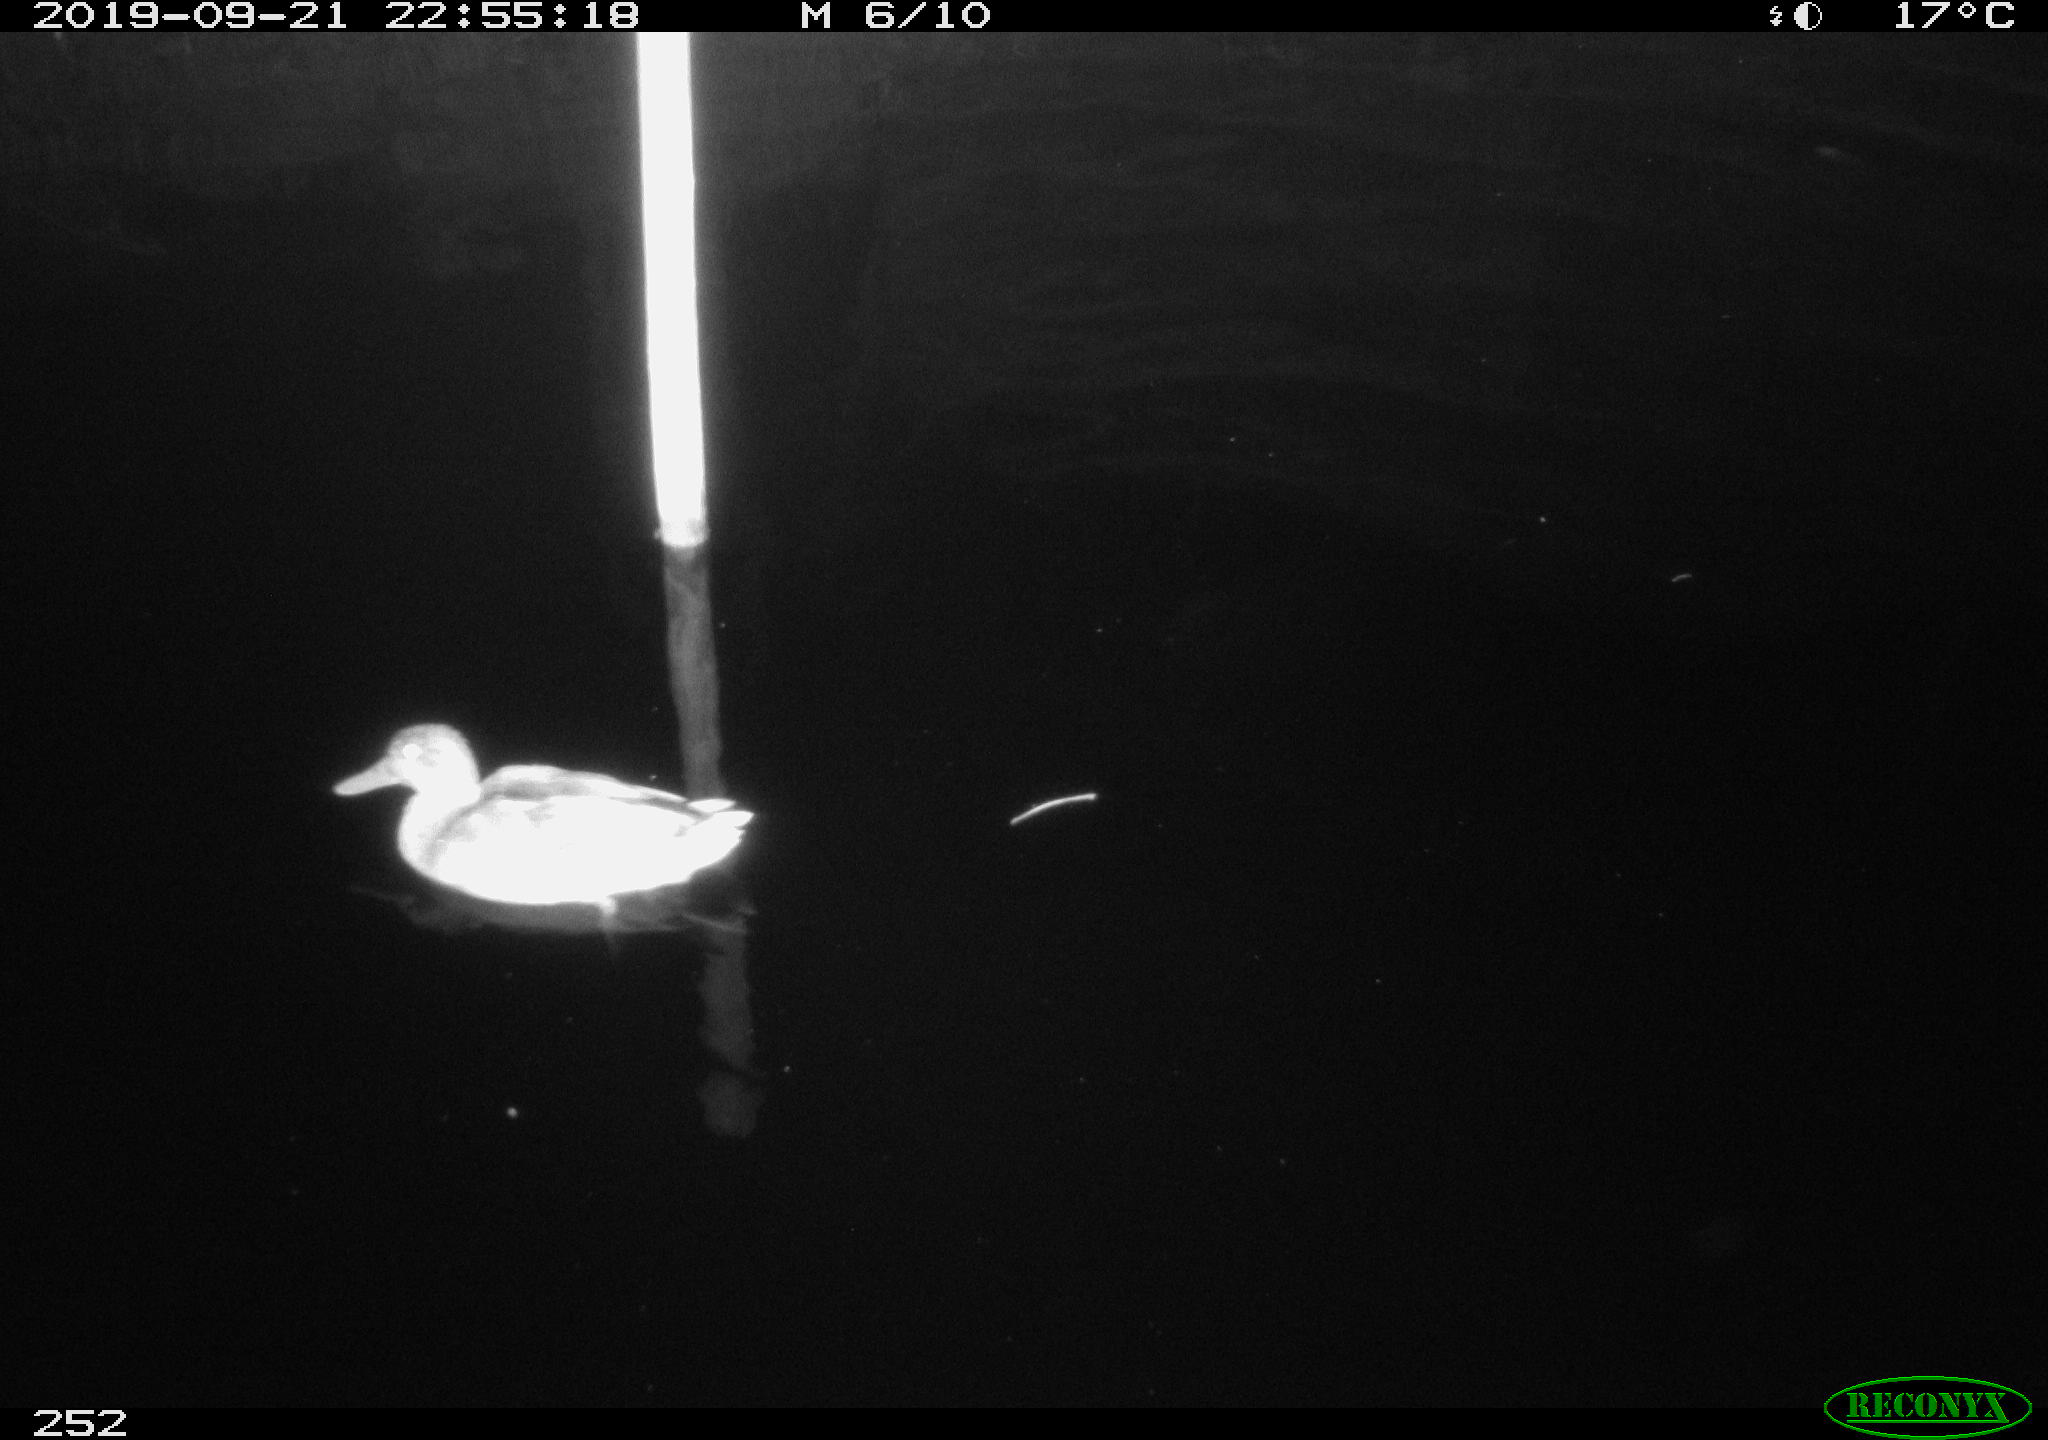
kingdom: Animalia
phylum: Chordata
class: Aves
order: Anseriformes
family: Anatidae
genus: Anas
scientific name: Anas platyrhynchos
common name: Mallard
